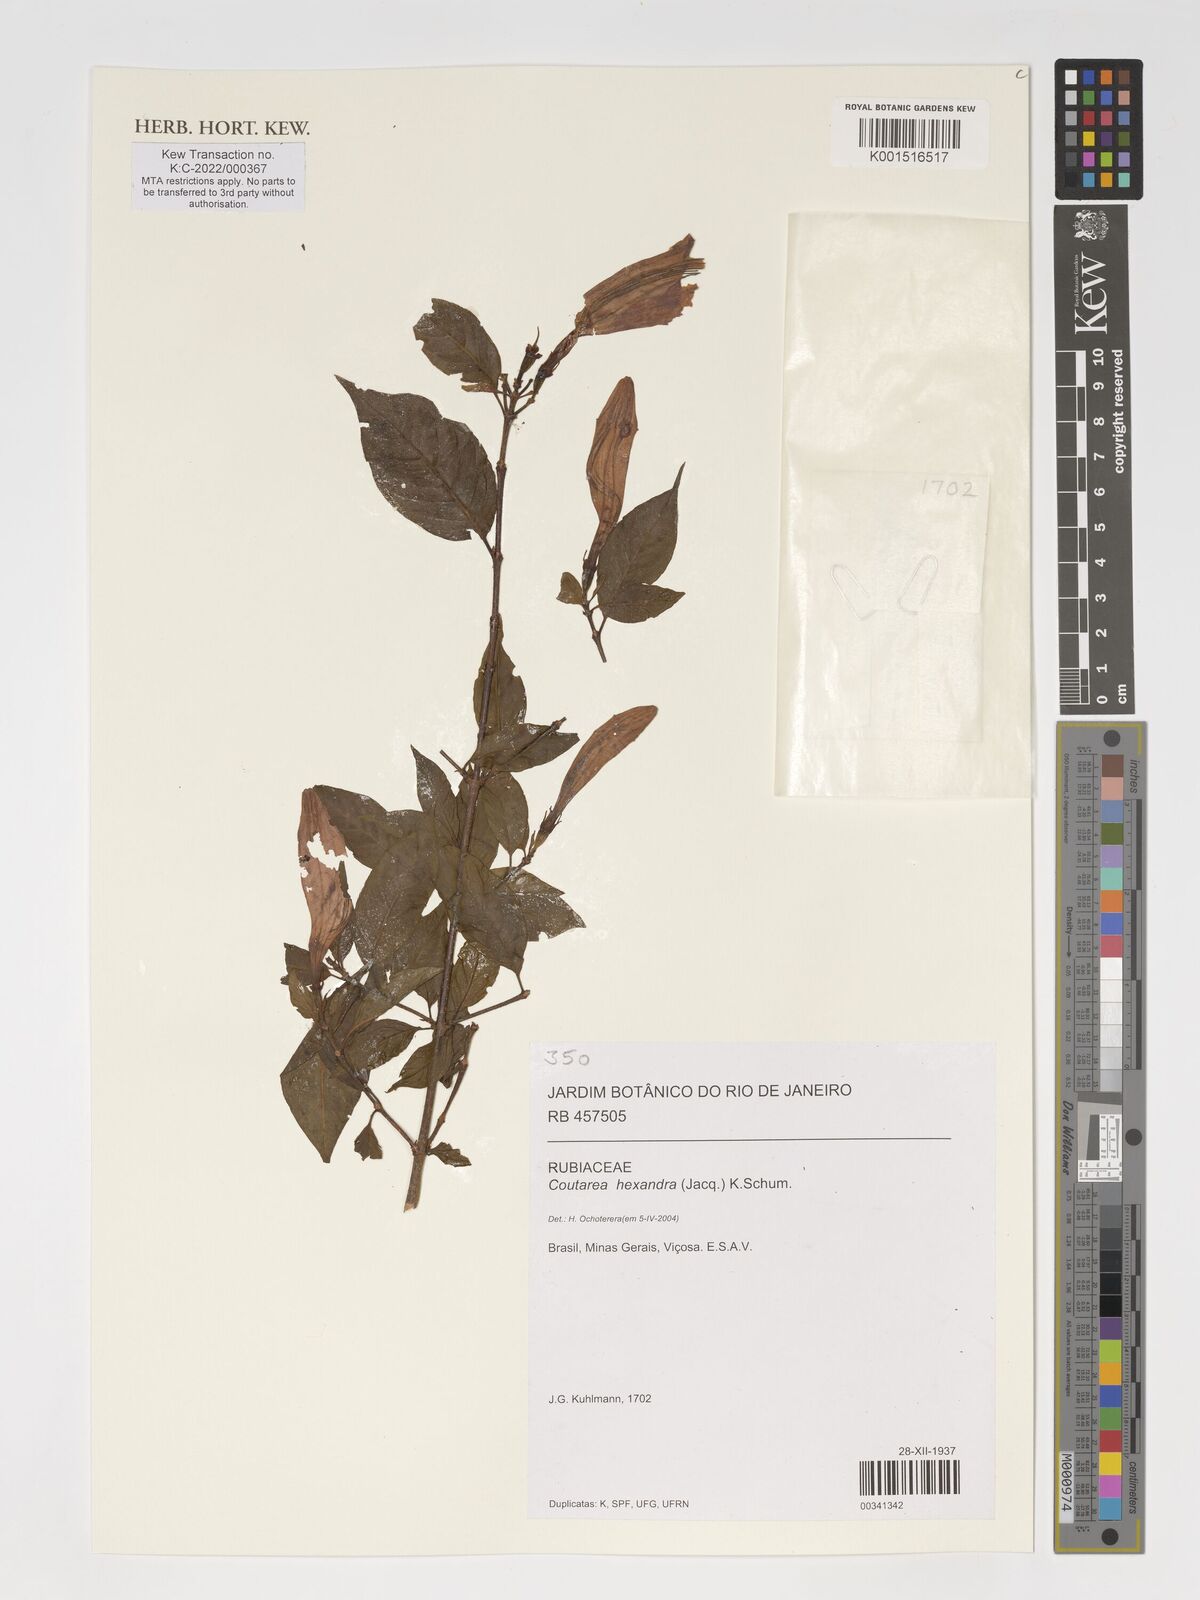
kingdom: Plantae
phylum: Tracheophyta
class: Magnoliopsida
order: Gentianales
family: Rubiaceae
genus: Coutarea
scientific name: Coutarea hexandra
